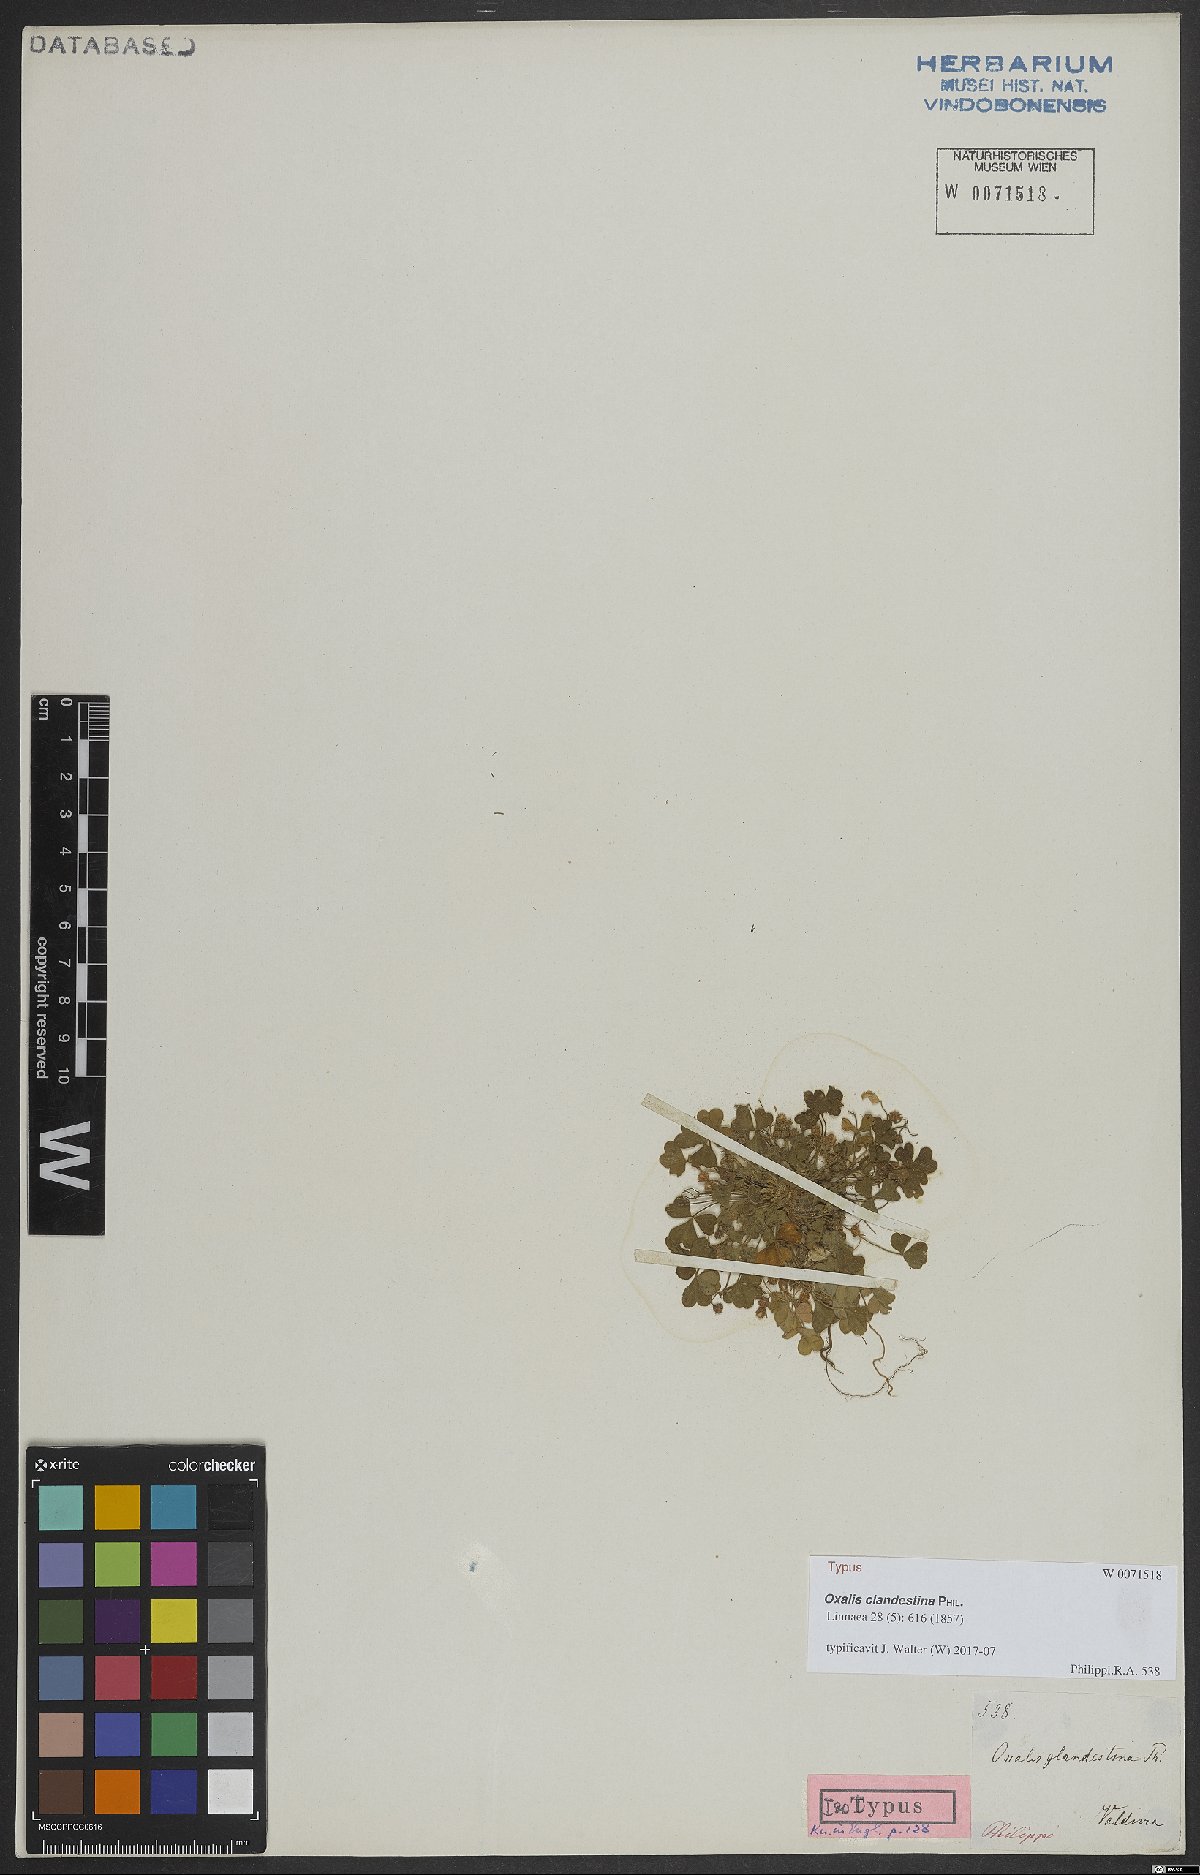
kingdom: Plantae
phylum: Tracheophyta
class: Magnoliopsida
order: Oxalidales
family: Oxalidaceae
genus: Oxalis
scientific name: Oxalis clandestina
